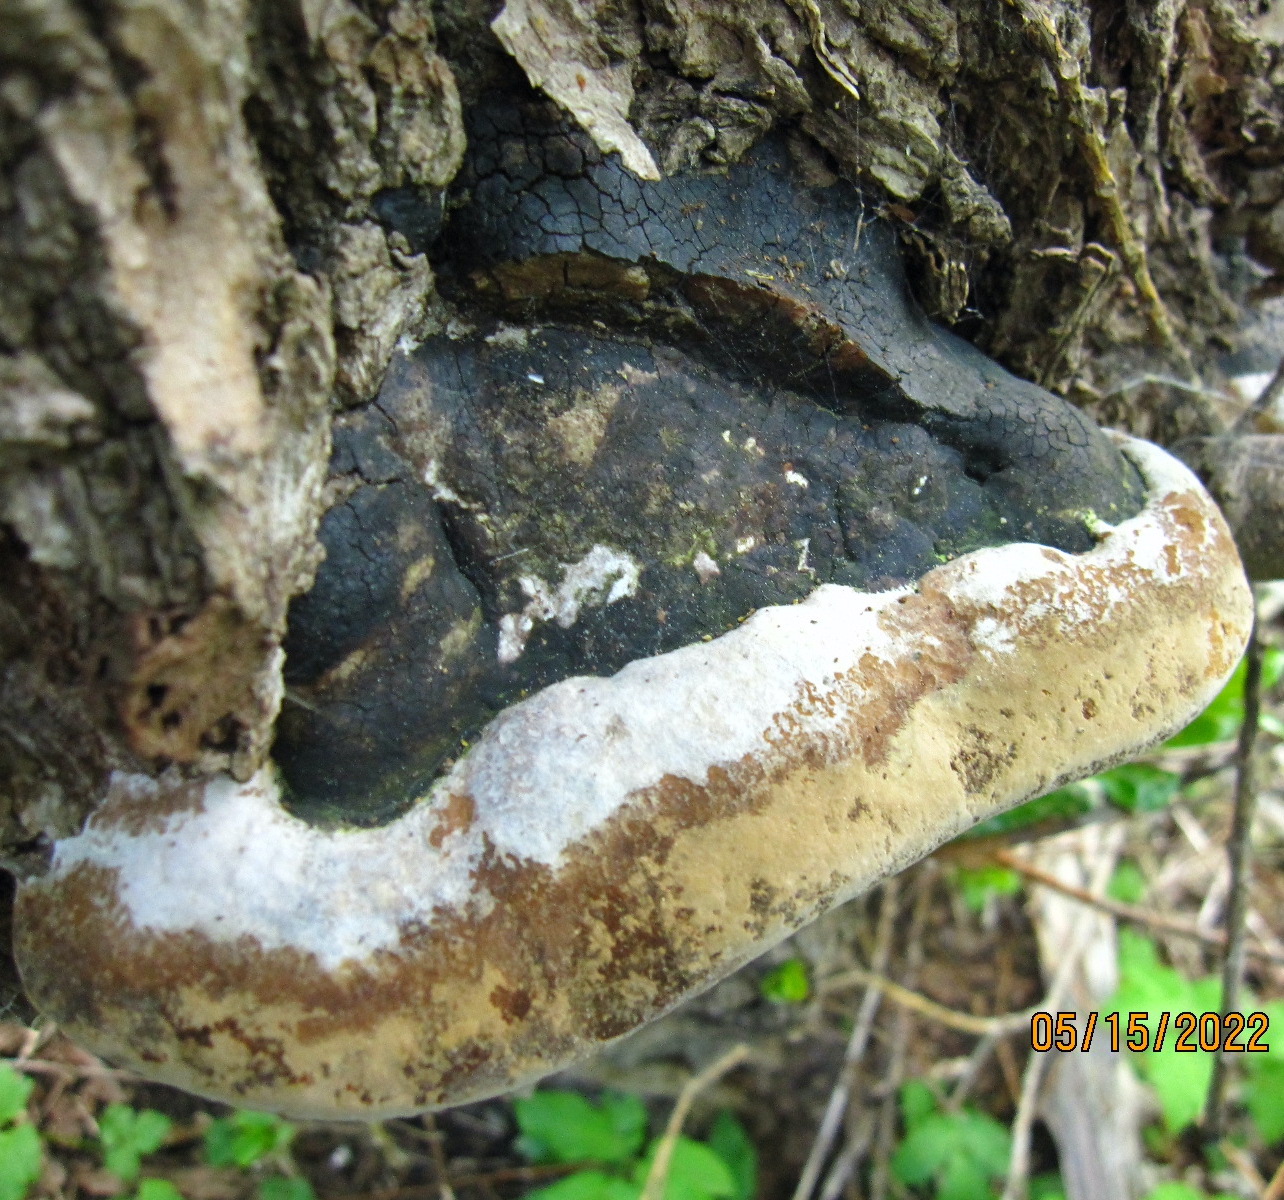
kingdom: Fungi
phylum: Basidiomycota
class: Agaricomycetes
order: Hymenochaetales
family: Hymenochaetaceae
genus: Phellinus
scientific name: Phellinus igniarius
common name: almindelig ildporesvamp
